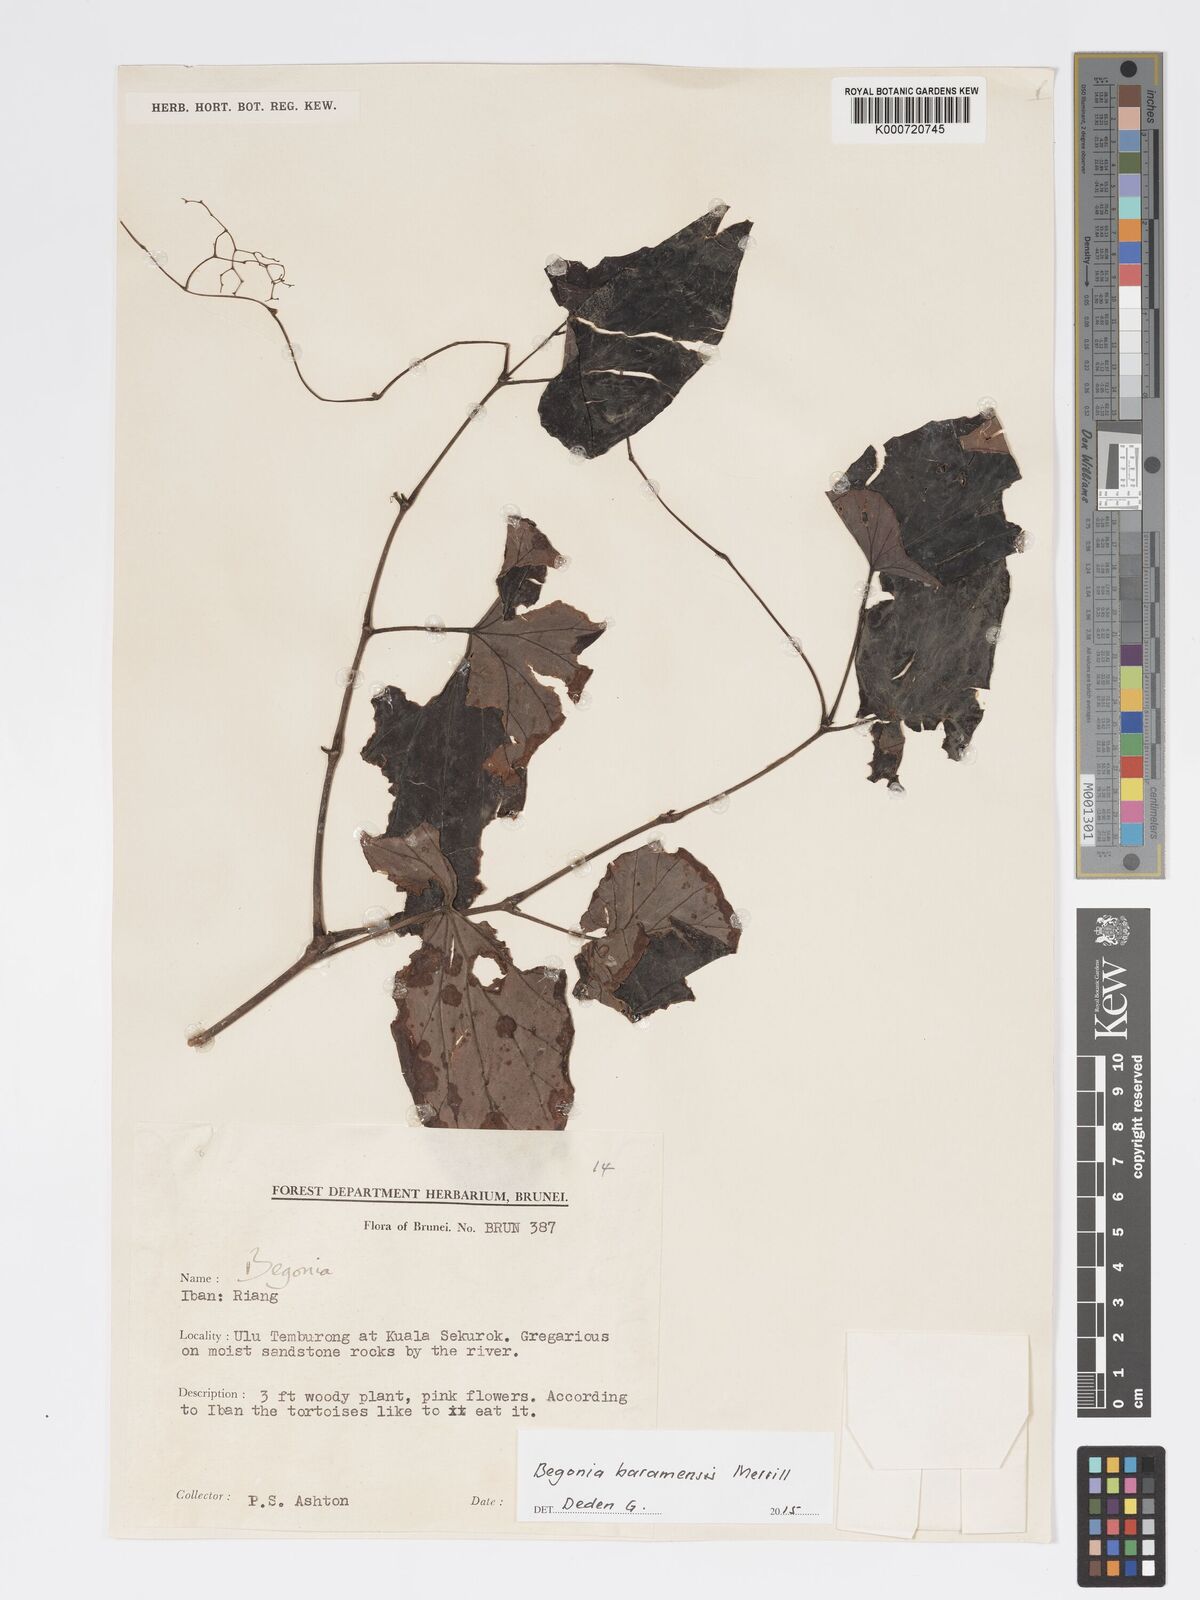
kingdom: Plantae
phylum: Tracheophyta
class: Magnoliopsida
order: Cucurbitales
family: Begoniaceae
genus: Begonia
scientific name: Begonia baramensis
